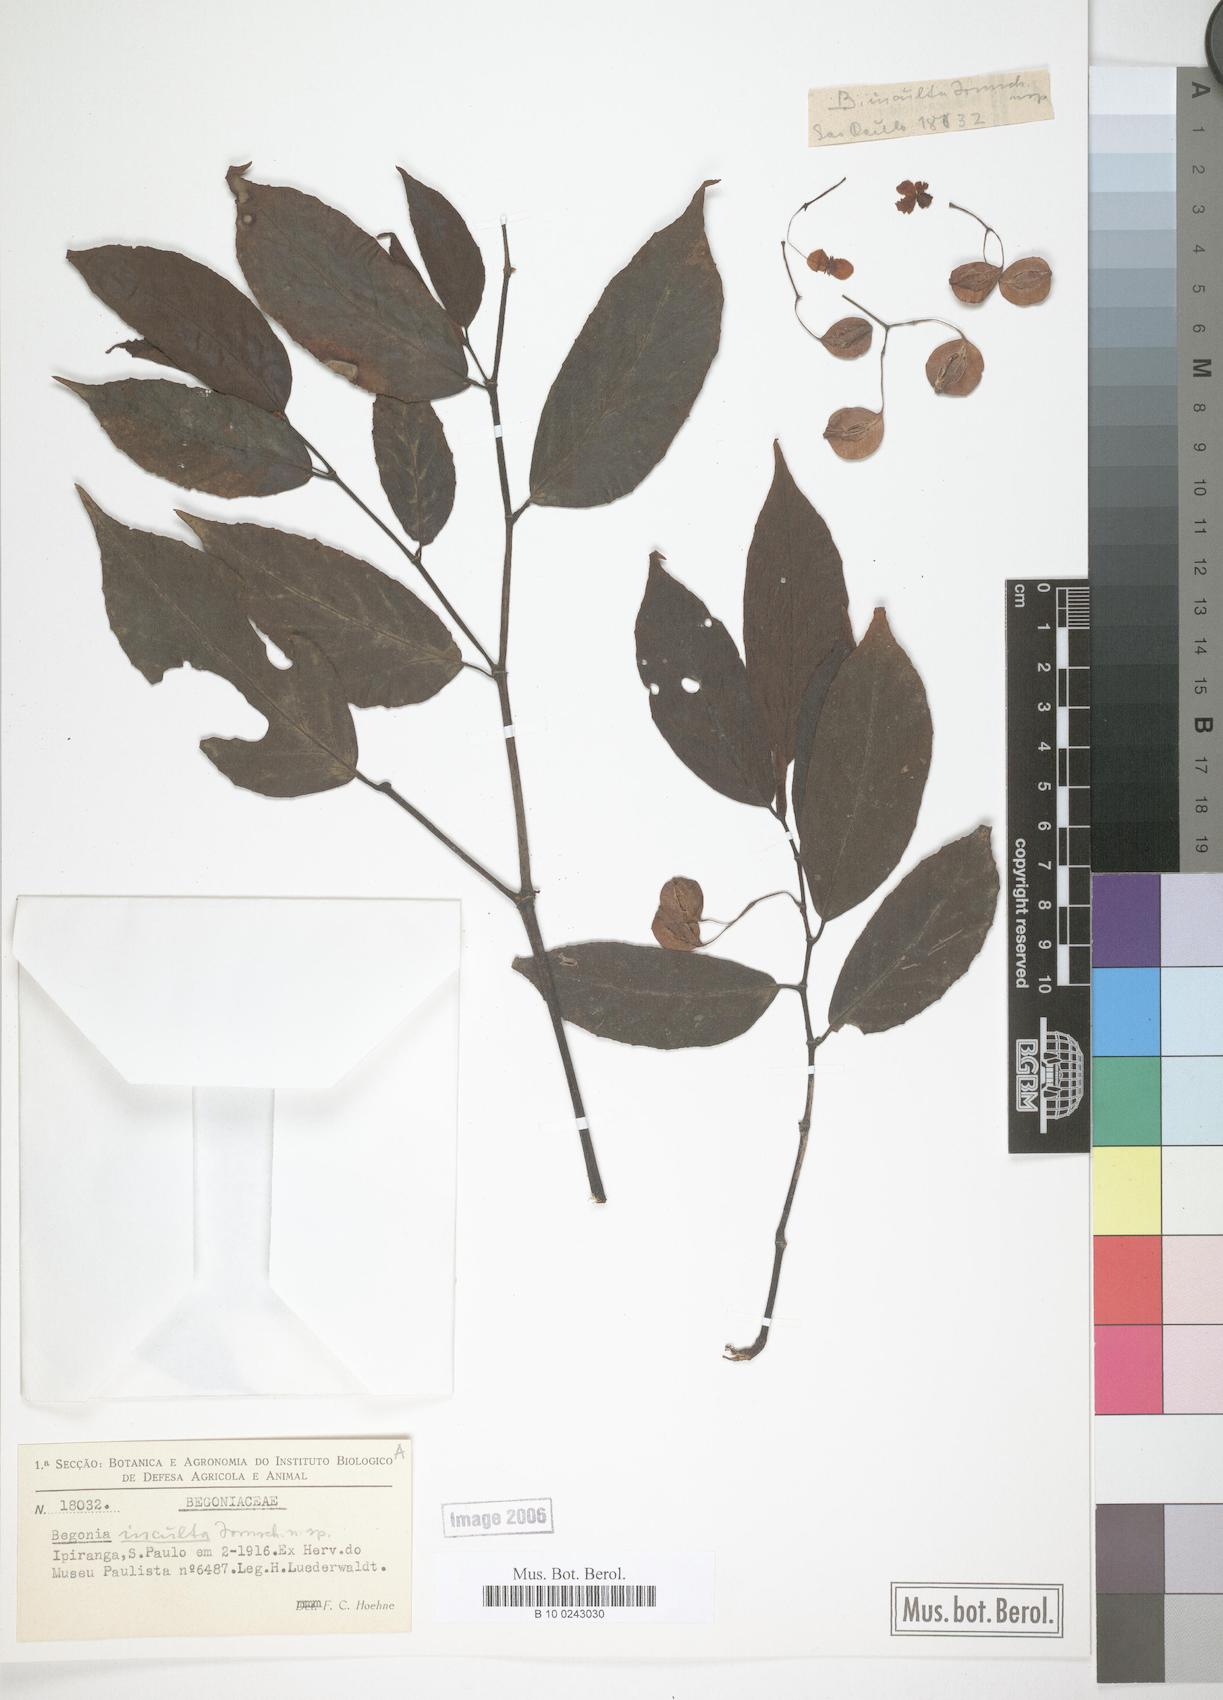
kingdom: Plantae
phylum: Tracheophyta
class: Magnoliopsida
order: Cucurbitales
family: Begoniaceae
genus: Begonia
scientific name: Begonia inculta
